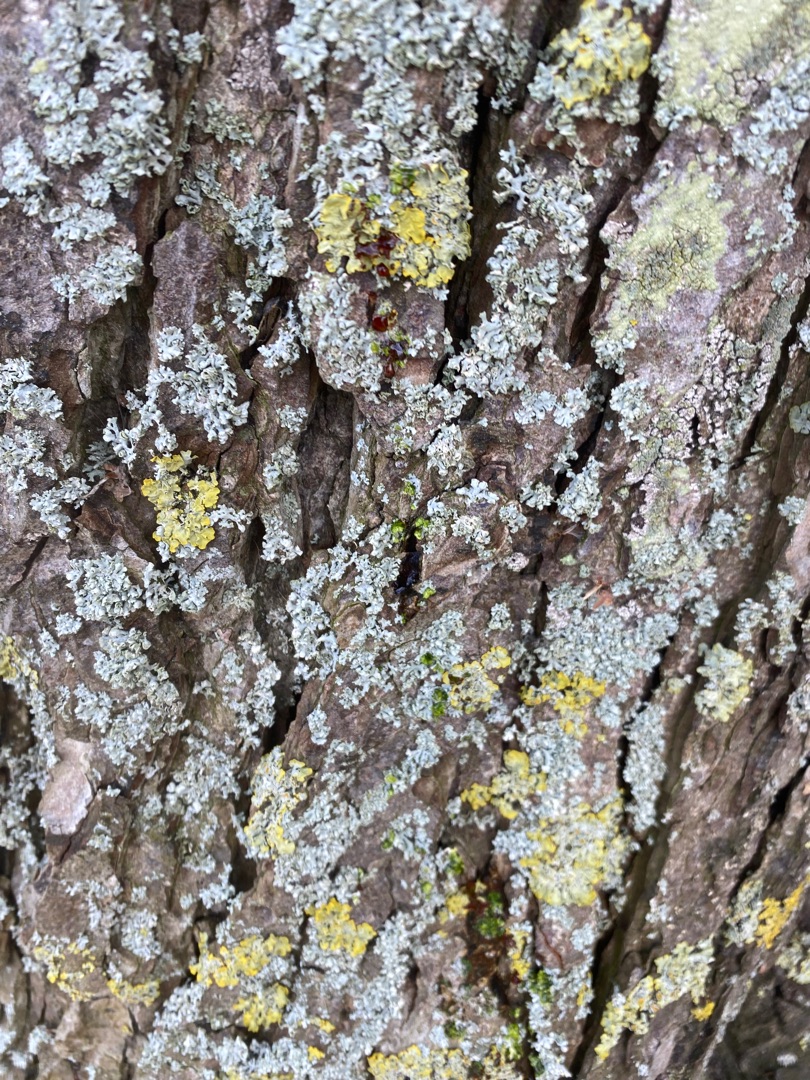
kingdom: Fungi
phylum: Ascomycota
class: Lecanoromycetes
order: Teloschistales
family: Teloschistaceae
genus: Xanthoria
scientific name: Xanthoria parietina
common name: Almindelig væggelav
